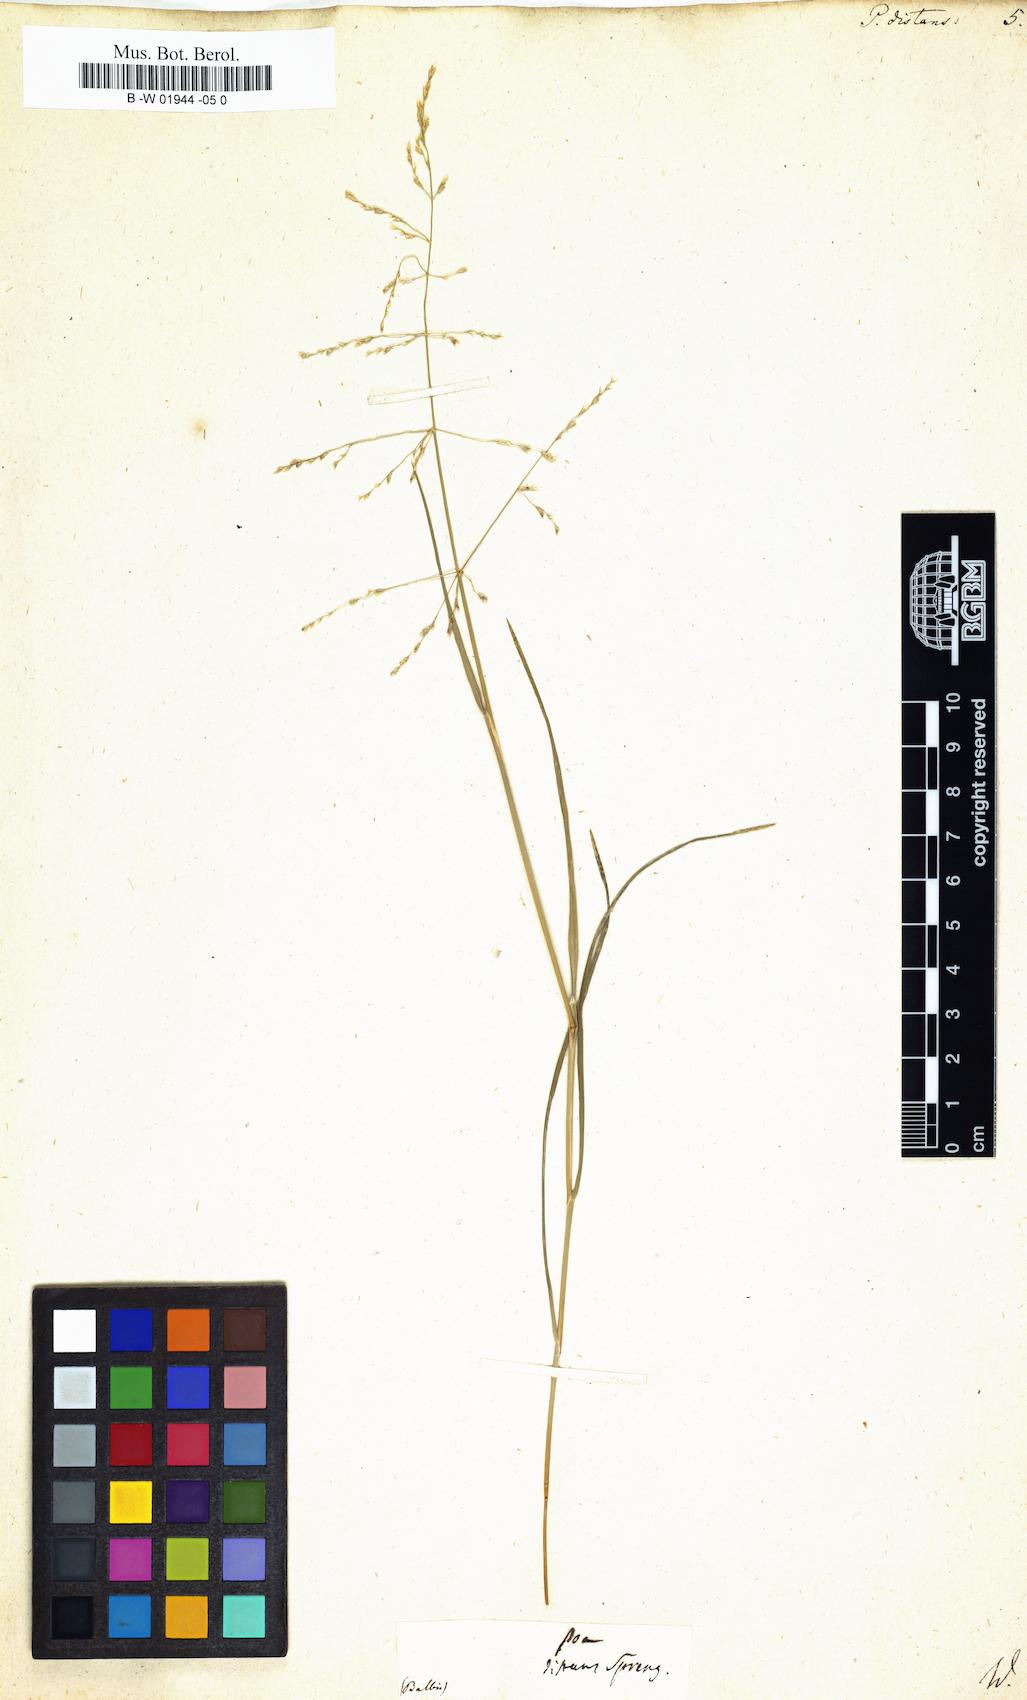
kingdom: Plantae
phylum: Tracheophyta
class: Liliopsida
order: Poales
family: Poaceae
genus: Poa
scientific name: Poa distans
